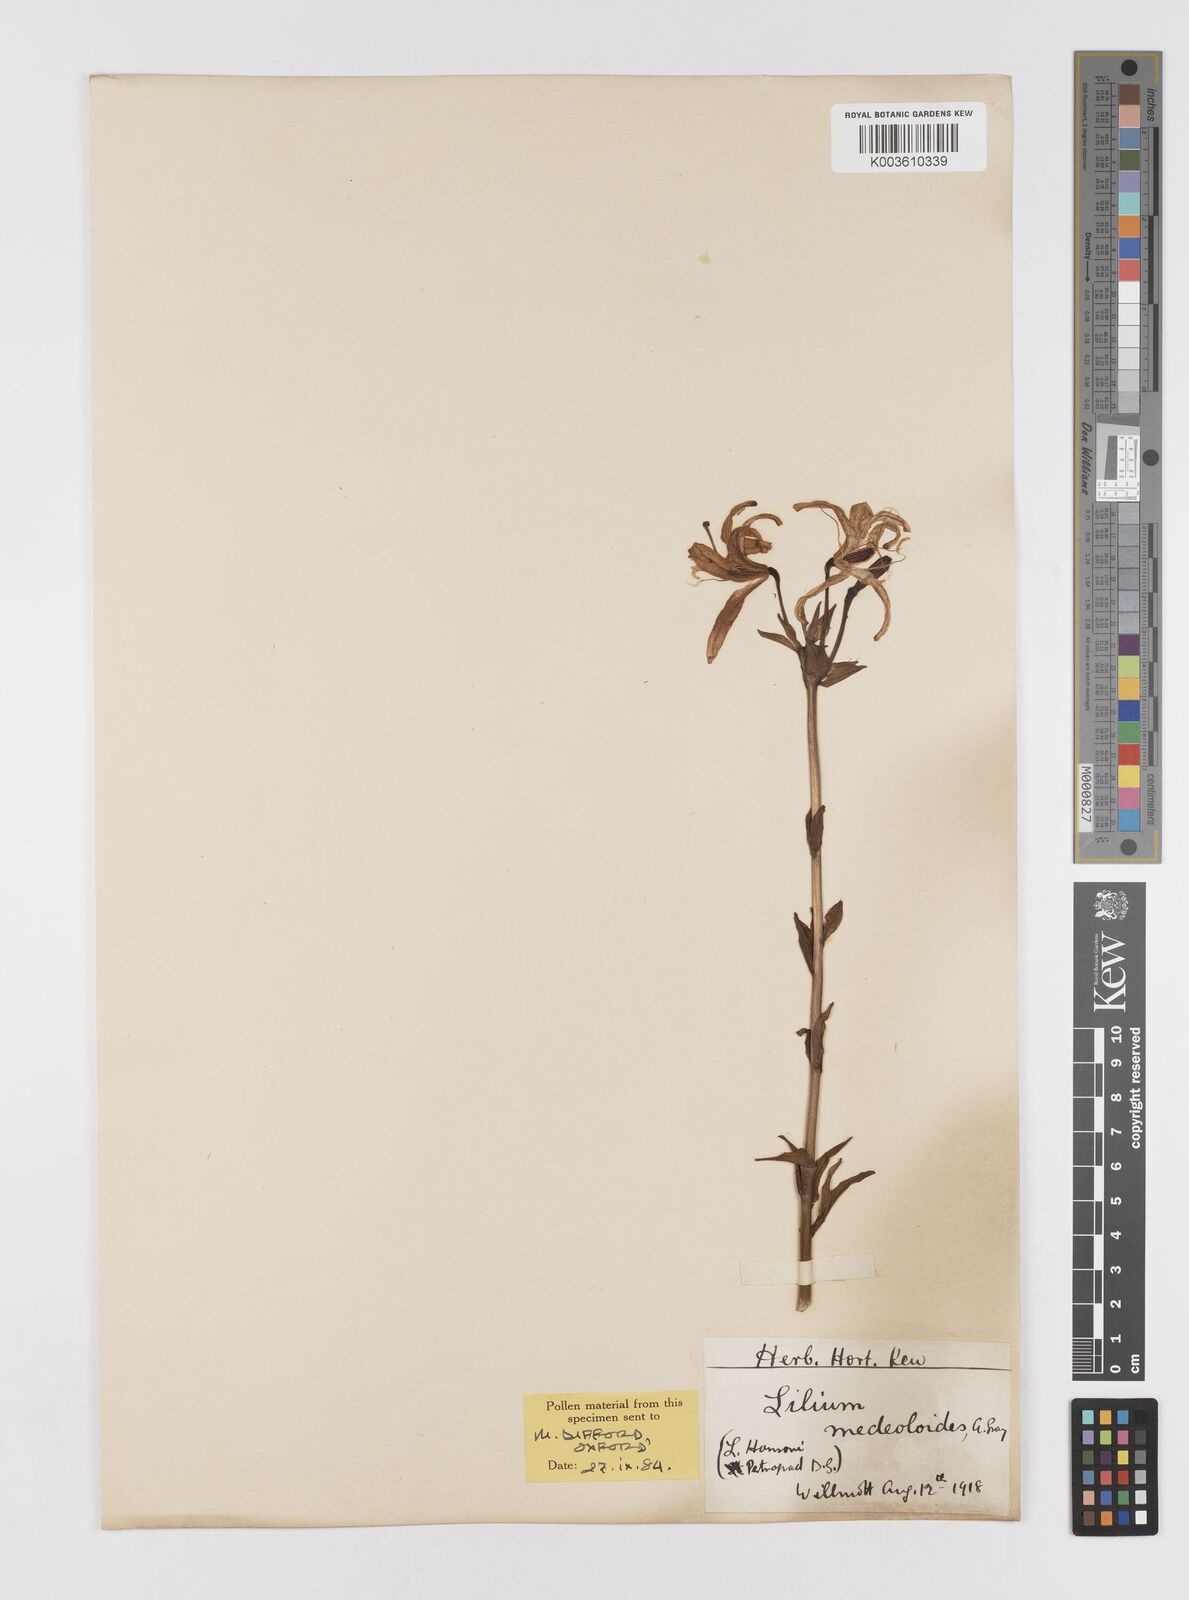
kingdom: Plantae
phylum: Tracheophyta
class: Liliopsida
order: Liliales
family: Liliaceae
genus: Lilium
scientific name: Lilium medeoloides
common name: Wheel lily
